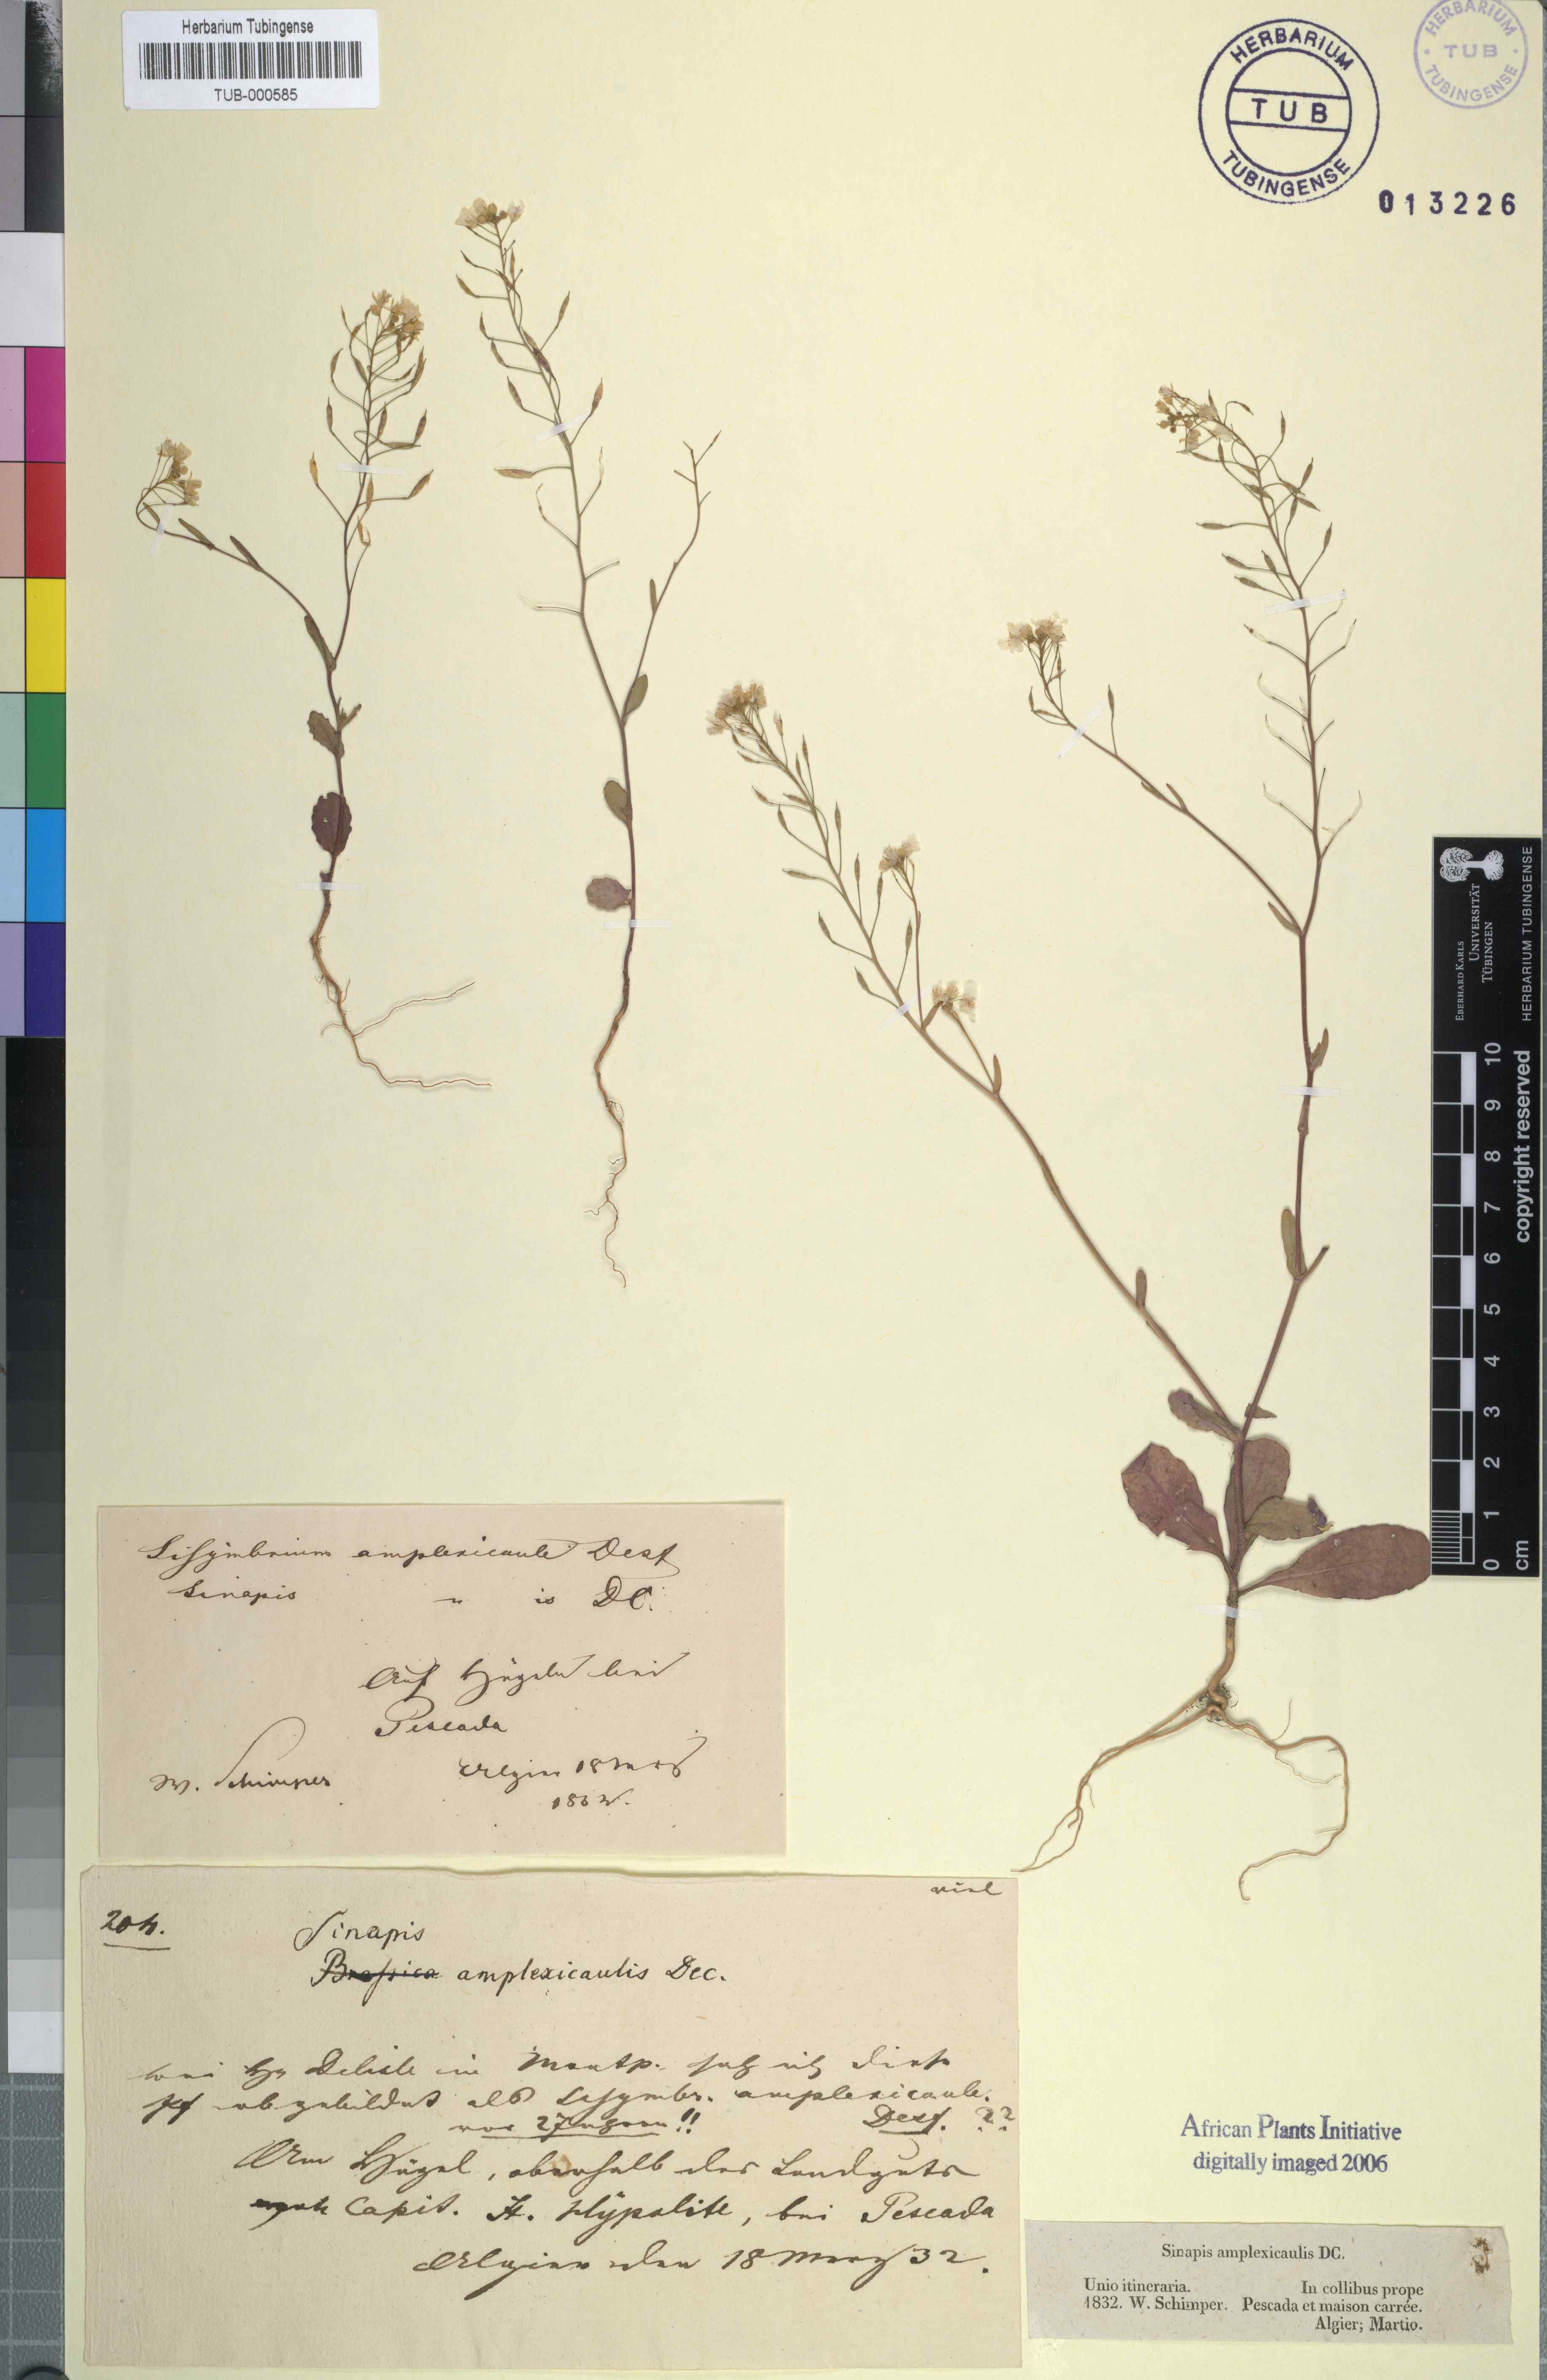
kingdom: Plantae
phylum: Tracheophyta
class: Magnoliopsida
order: Brassicales
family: Brassicaceae
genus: Brassica
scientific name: Brassica souliei
